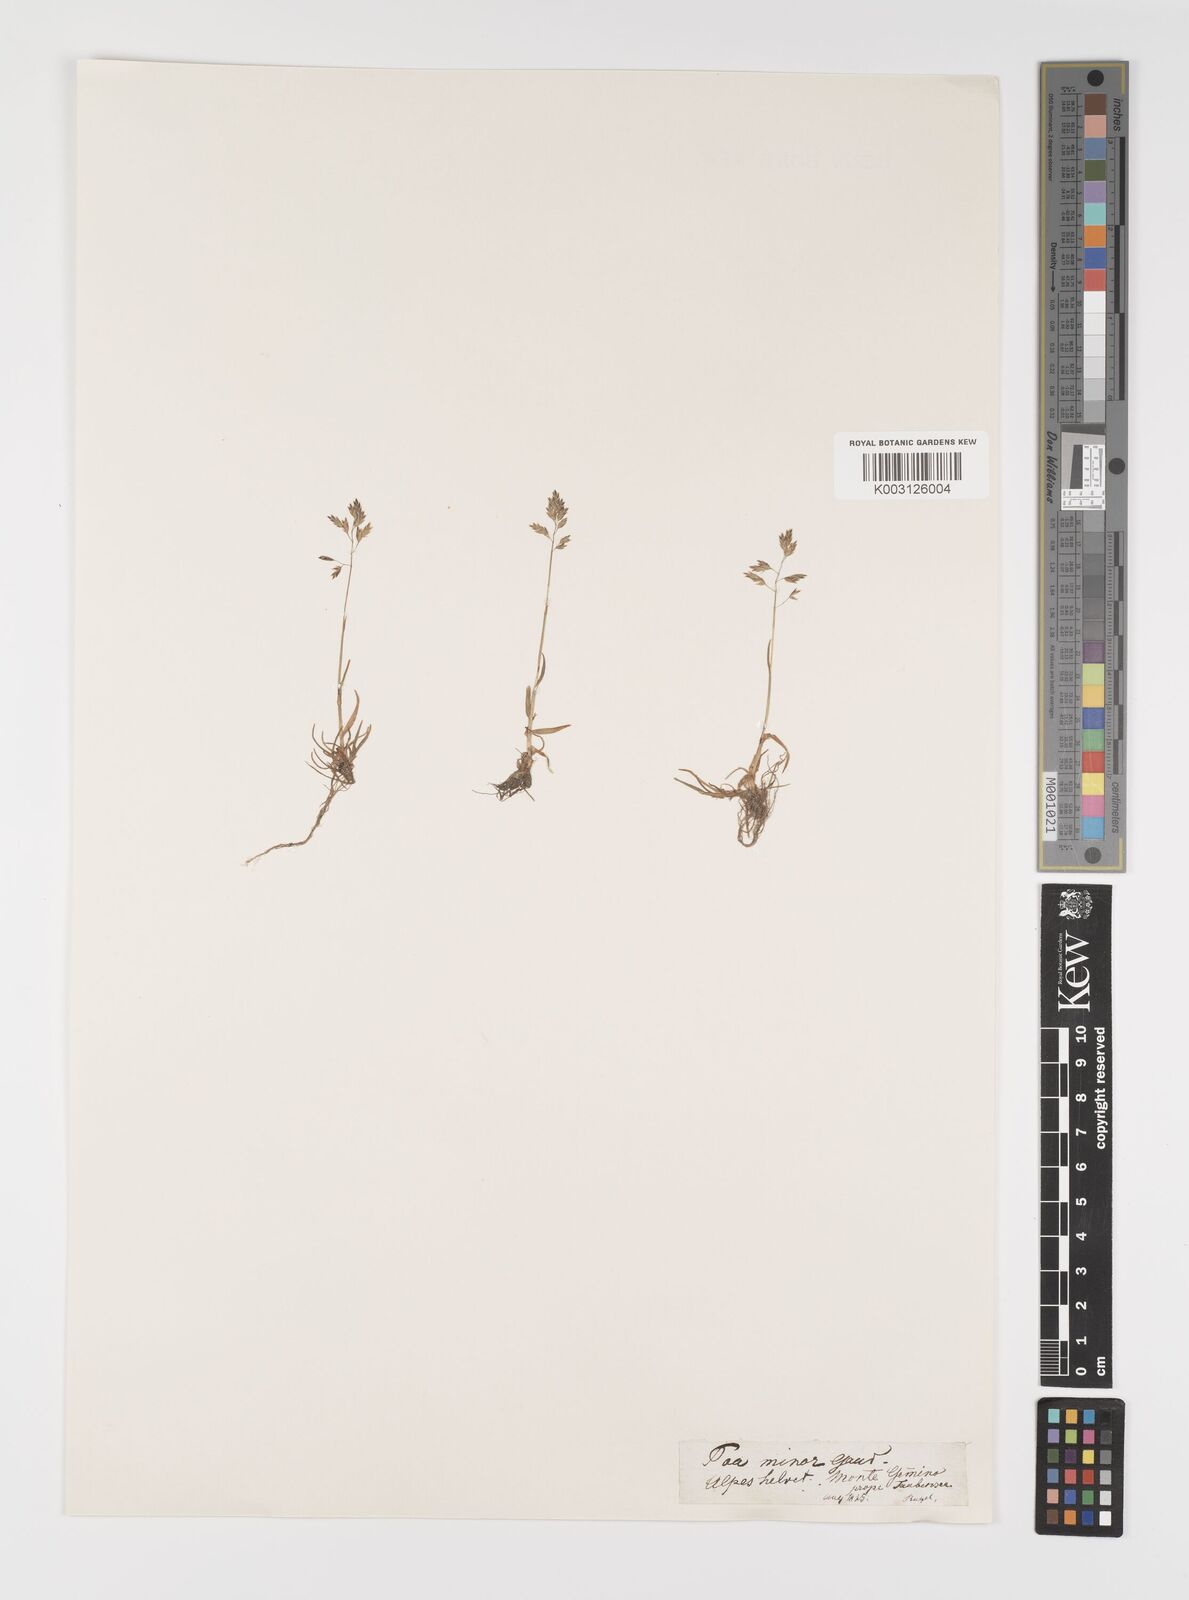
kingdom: Plantae
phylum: Tracheophyta
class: Liliopsida
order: Poales
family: Poaceae
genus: Poa
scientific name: Poa minor
